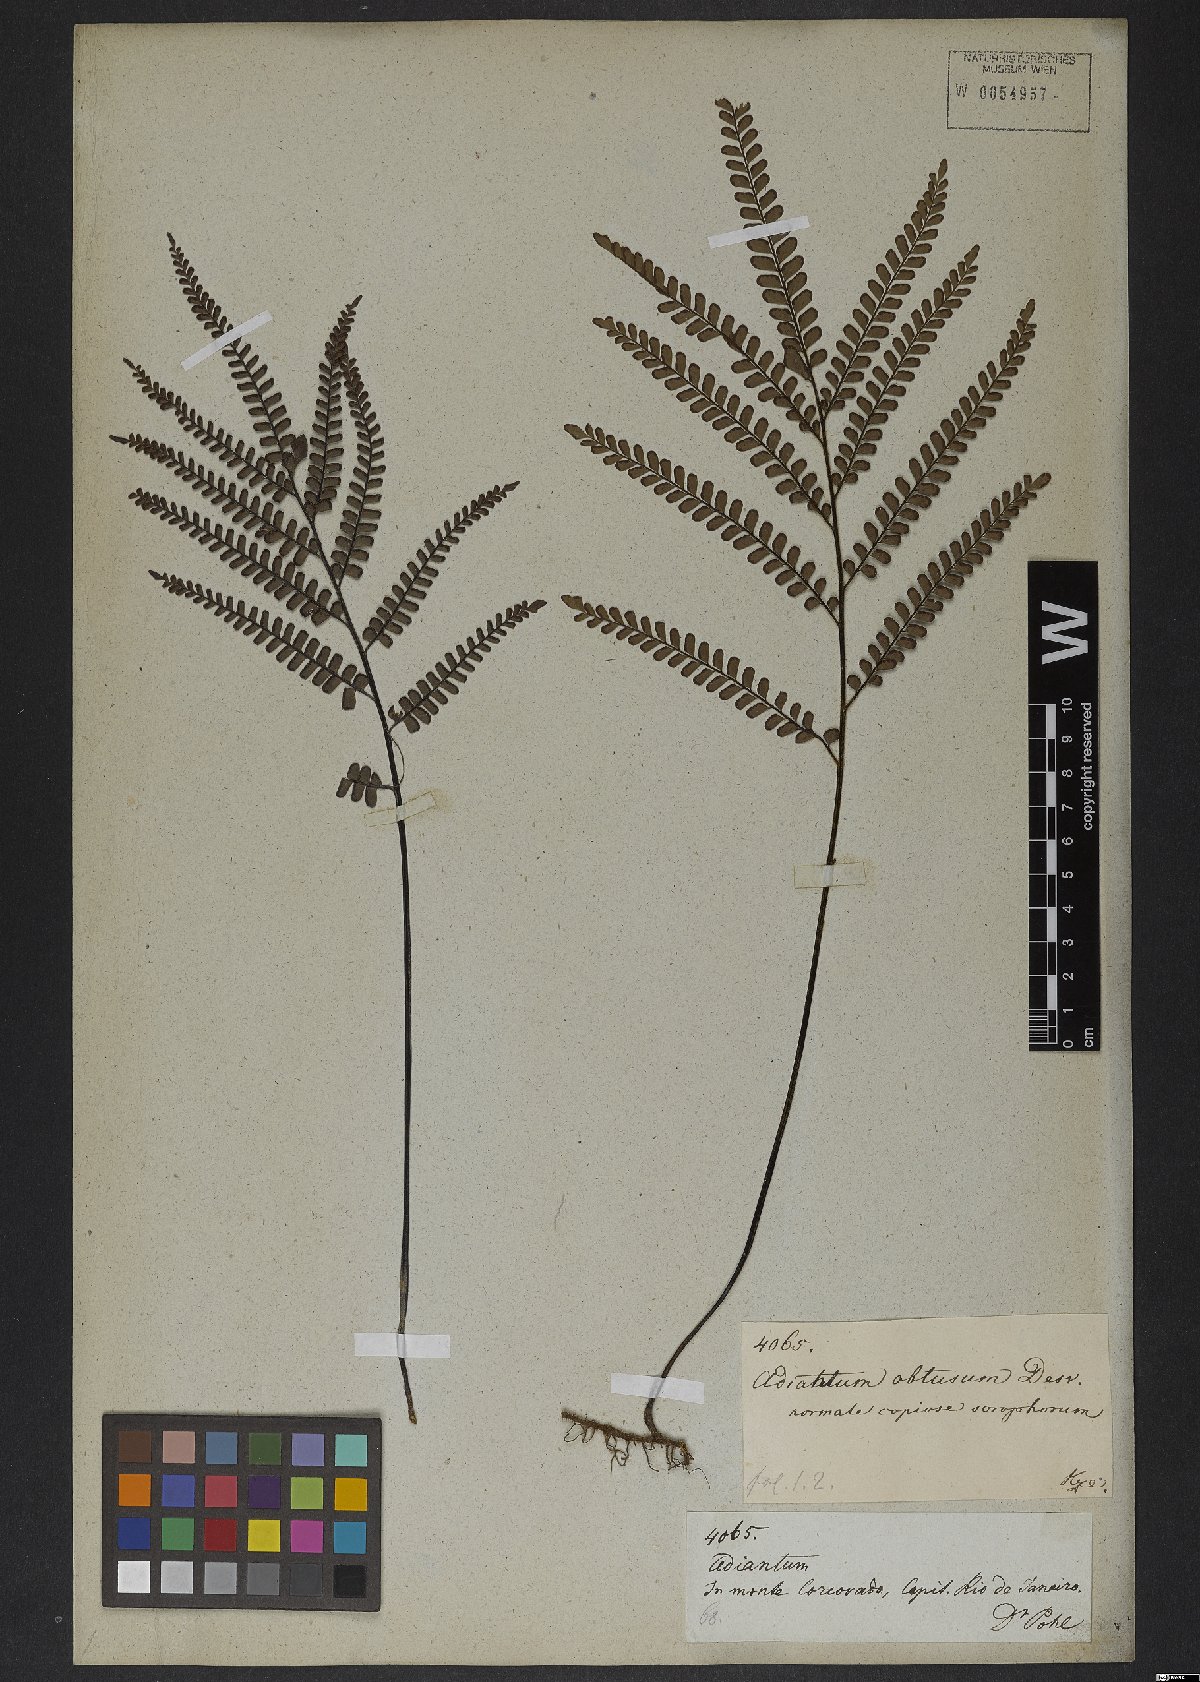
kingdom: Plantae
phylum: Tracheophyta
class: Polypodiopsida
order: Polypodiales
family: Pteridaceae
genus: Adiantum
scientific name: Adiantum serratodentatum
